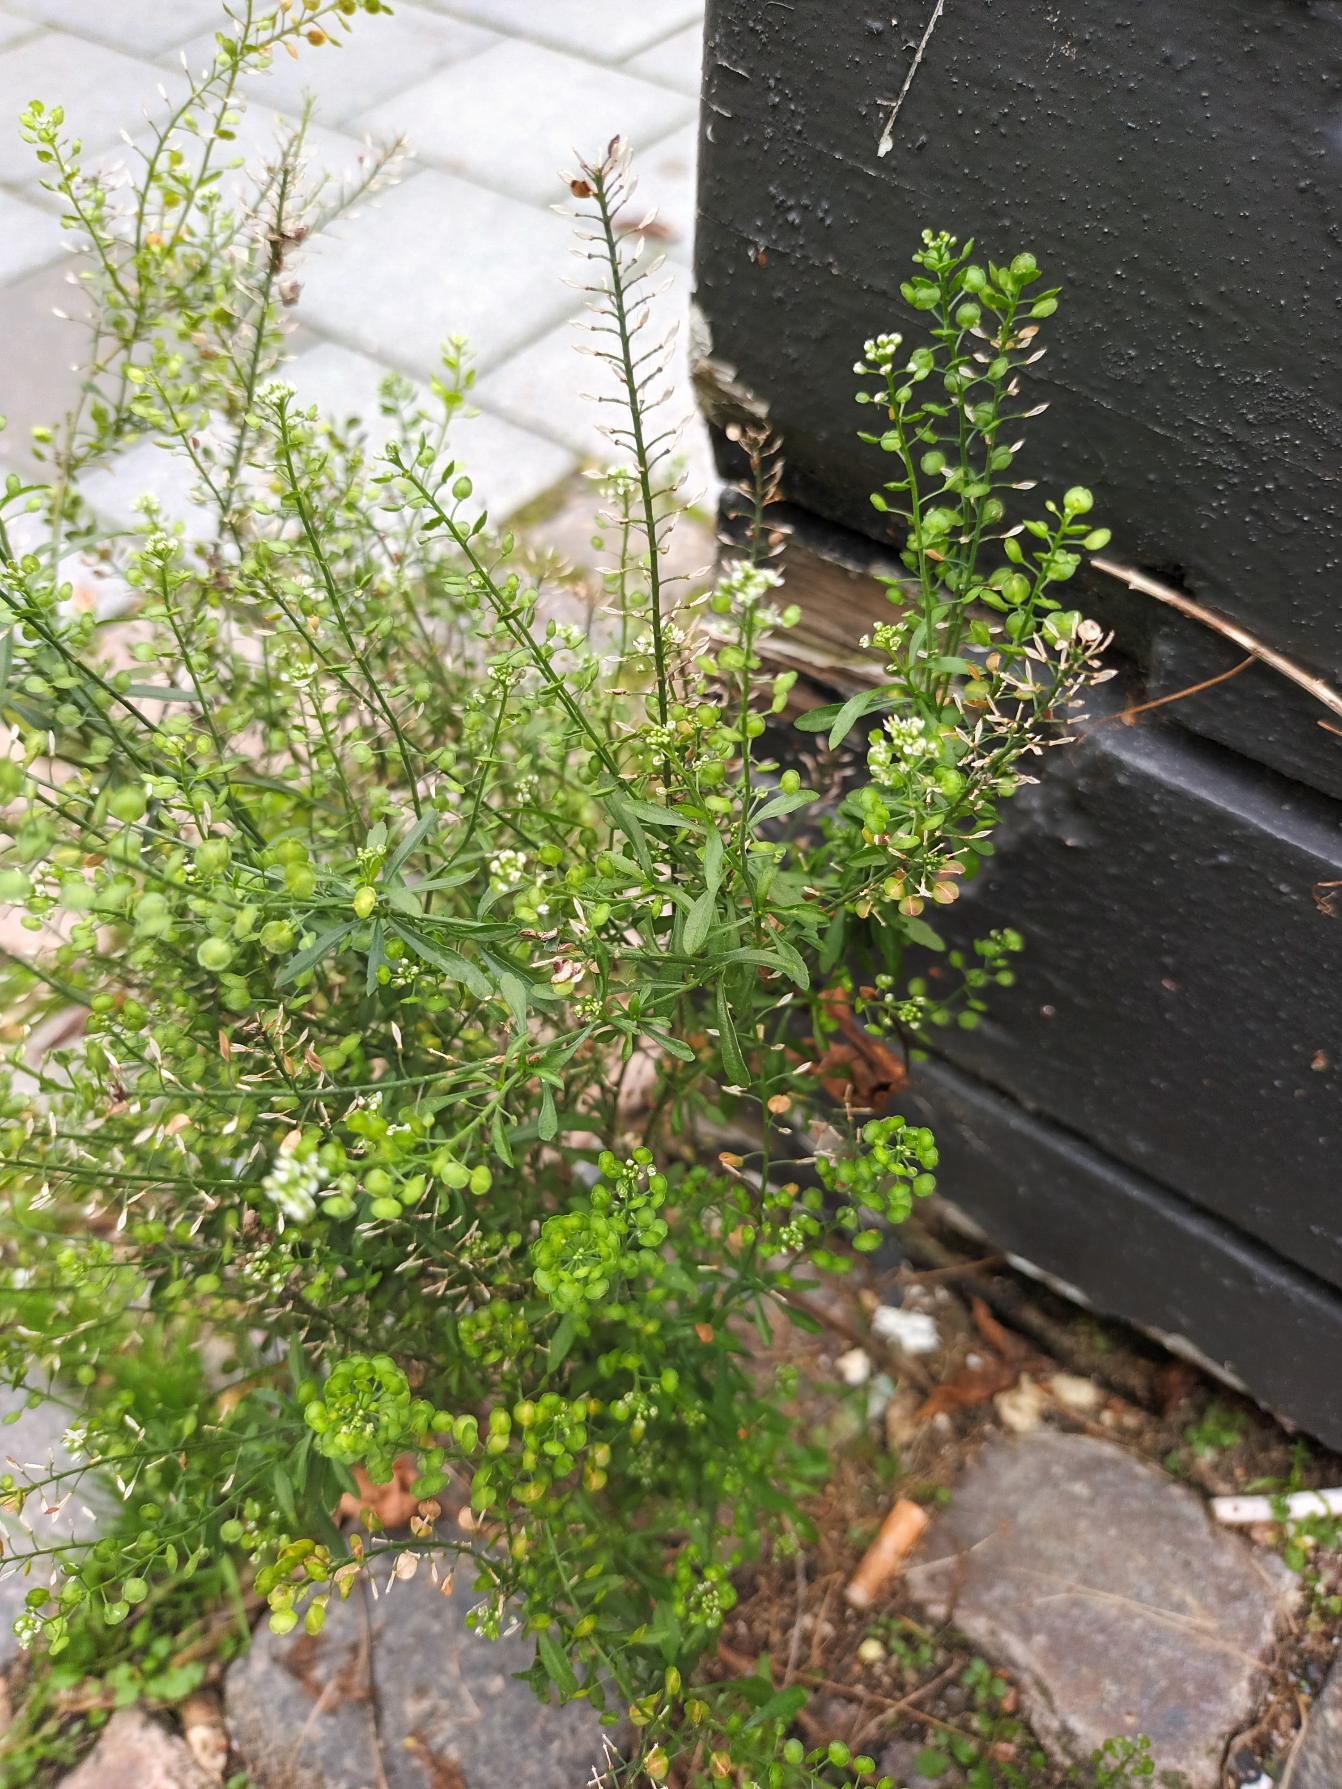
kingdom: Plantae
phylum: Tracheophyta
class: Magnoliopsida
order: Brassicales
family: Brassicaceae
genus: Lepidium
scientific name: Lepidium densiflorum
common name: Vingefrøet karse
